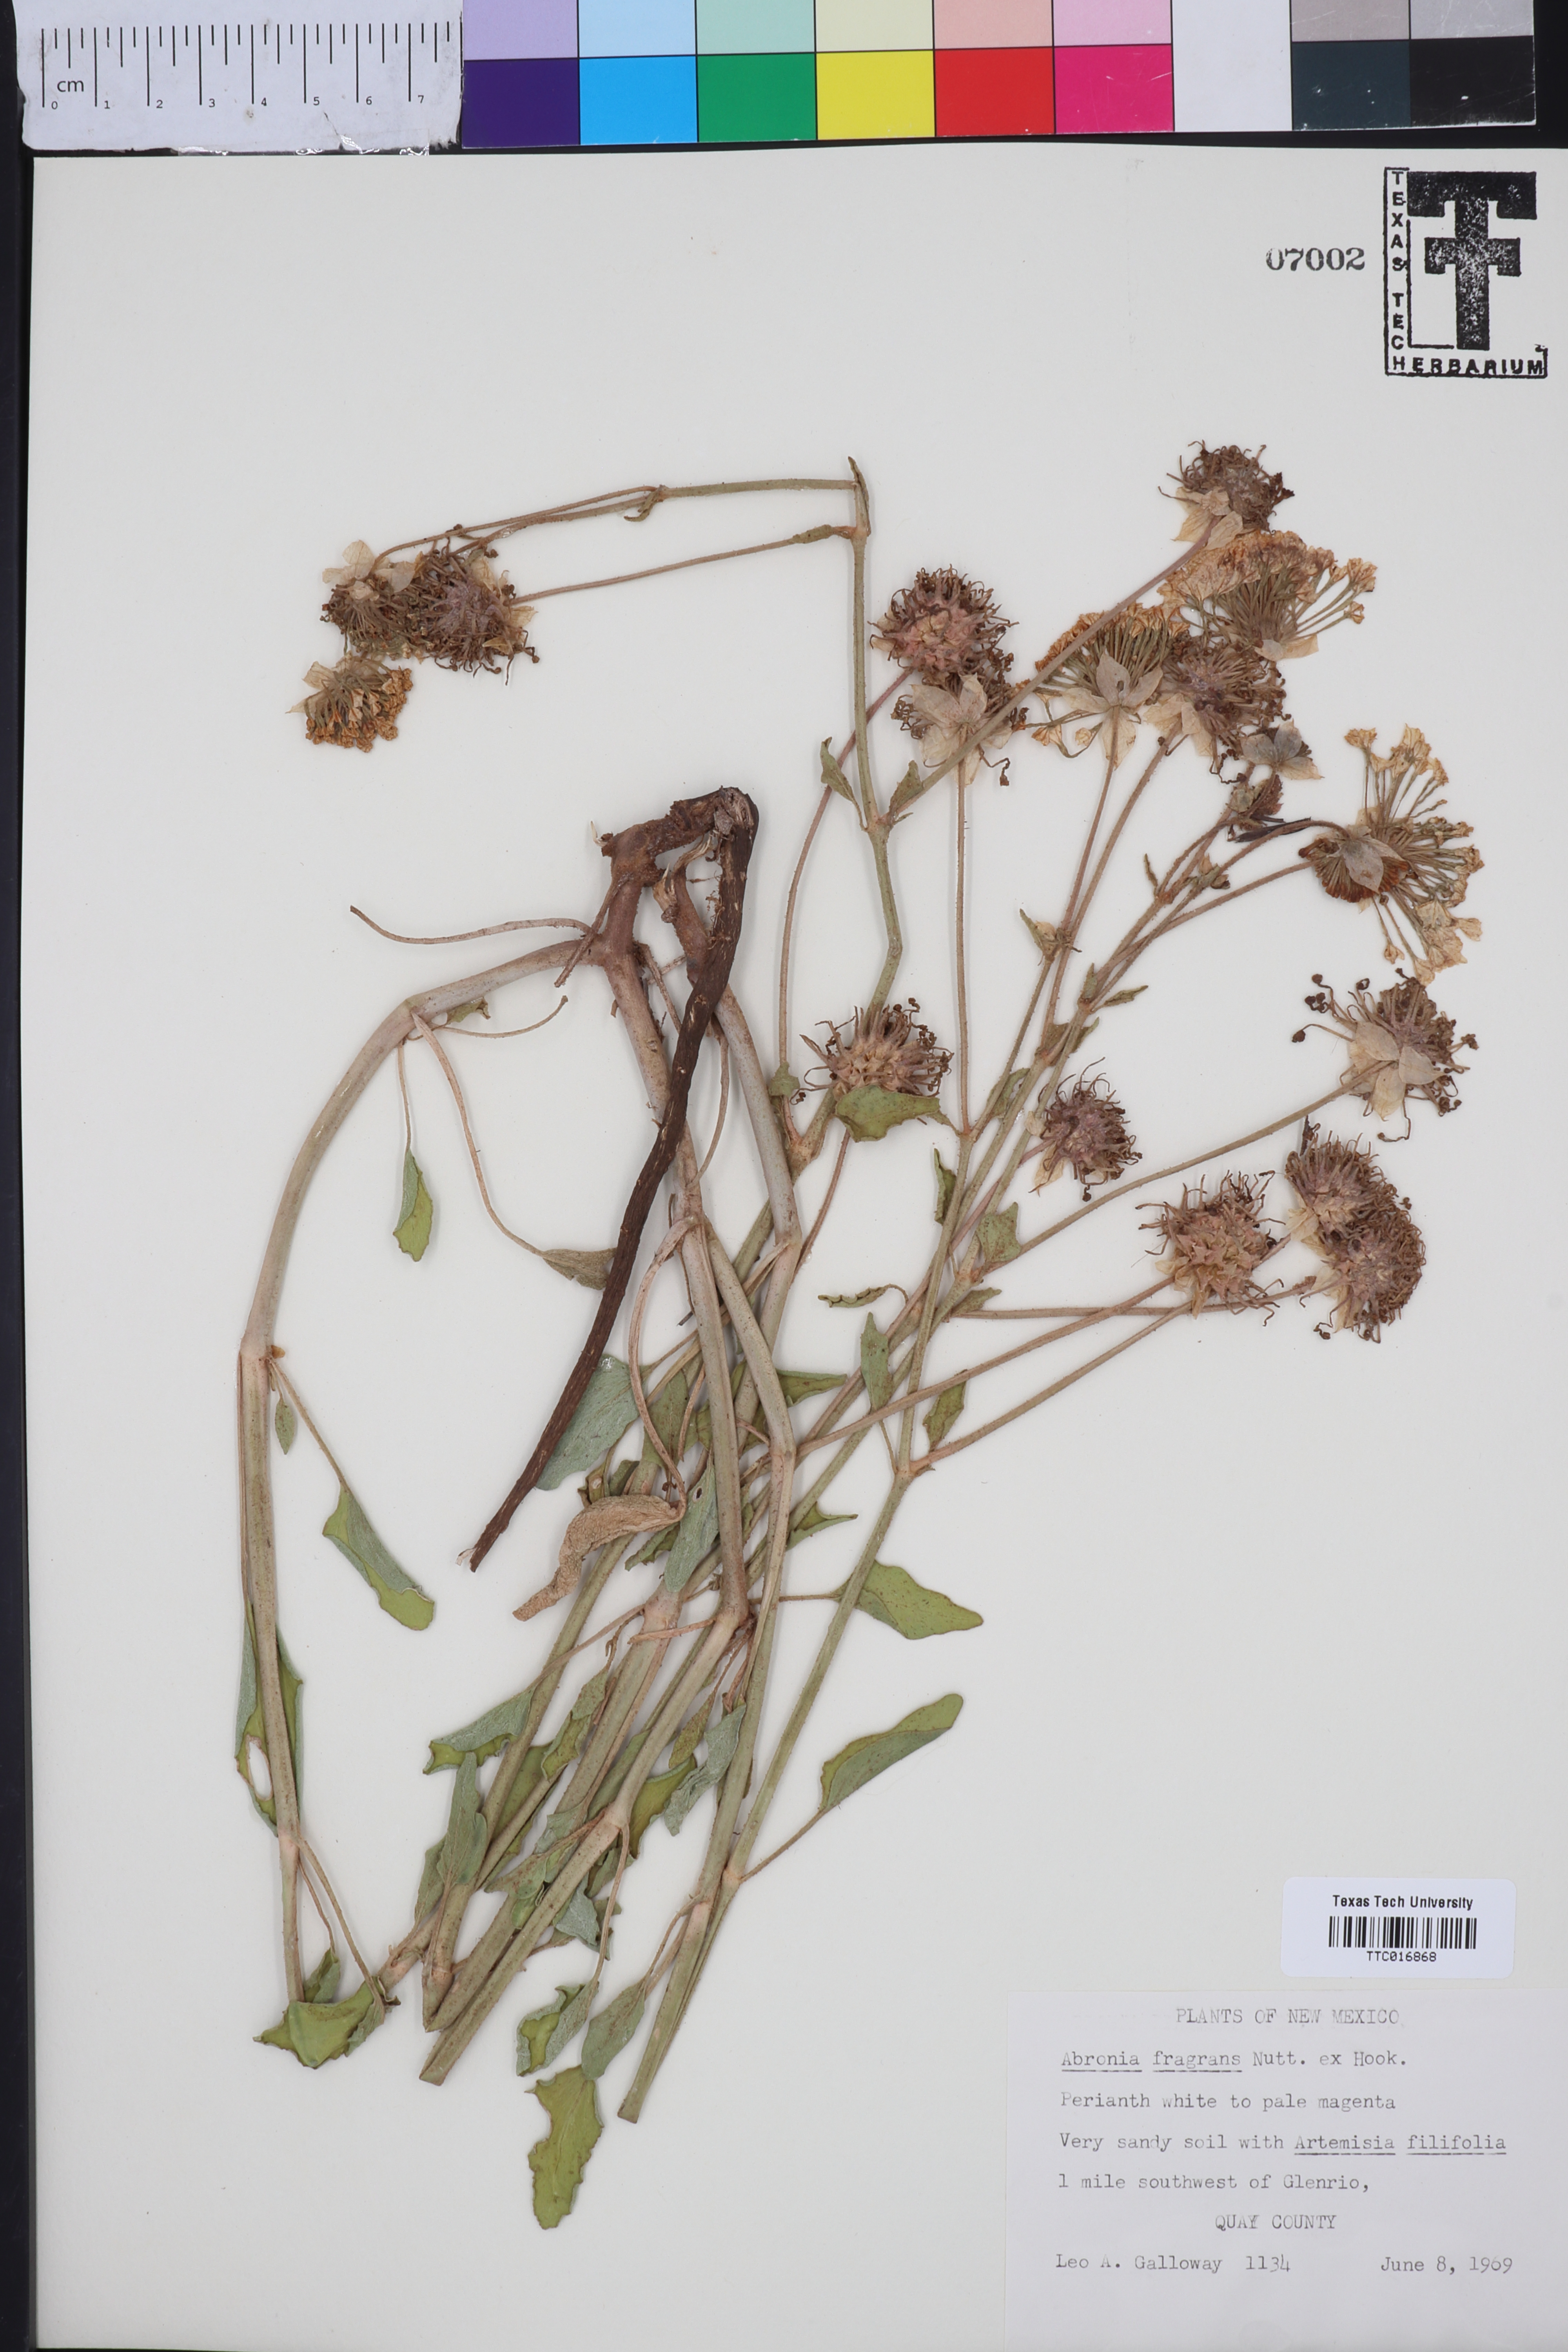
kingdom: Plantae
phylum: Tracheophyta
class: Magnoliopsida
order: Caryophyllales
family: Nyctaginaceae
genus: Abronia
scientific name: Abronia fragrans
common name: Fragrant sand-verbena
